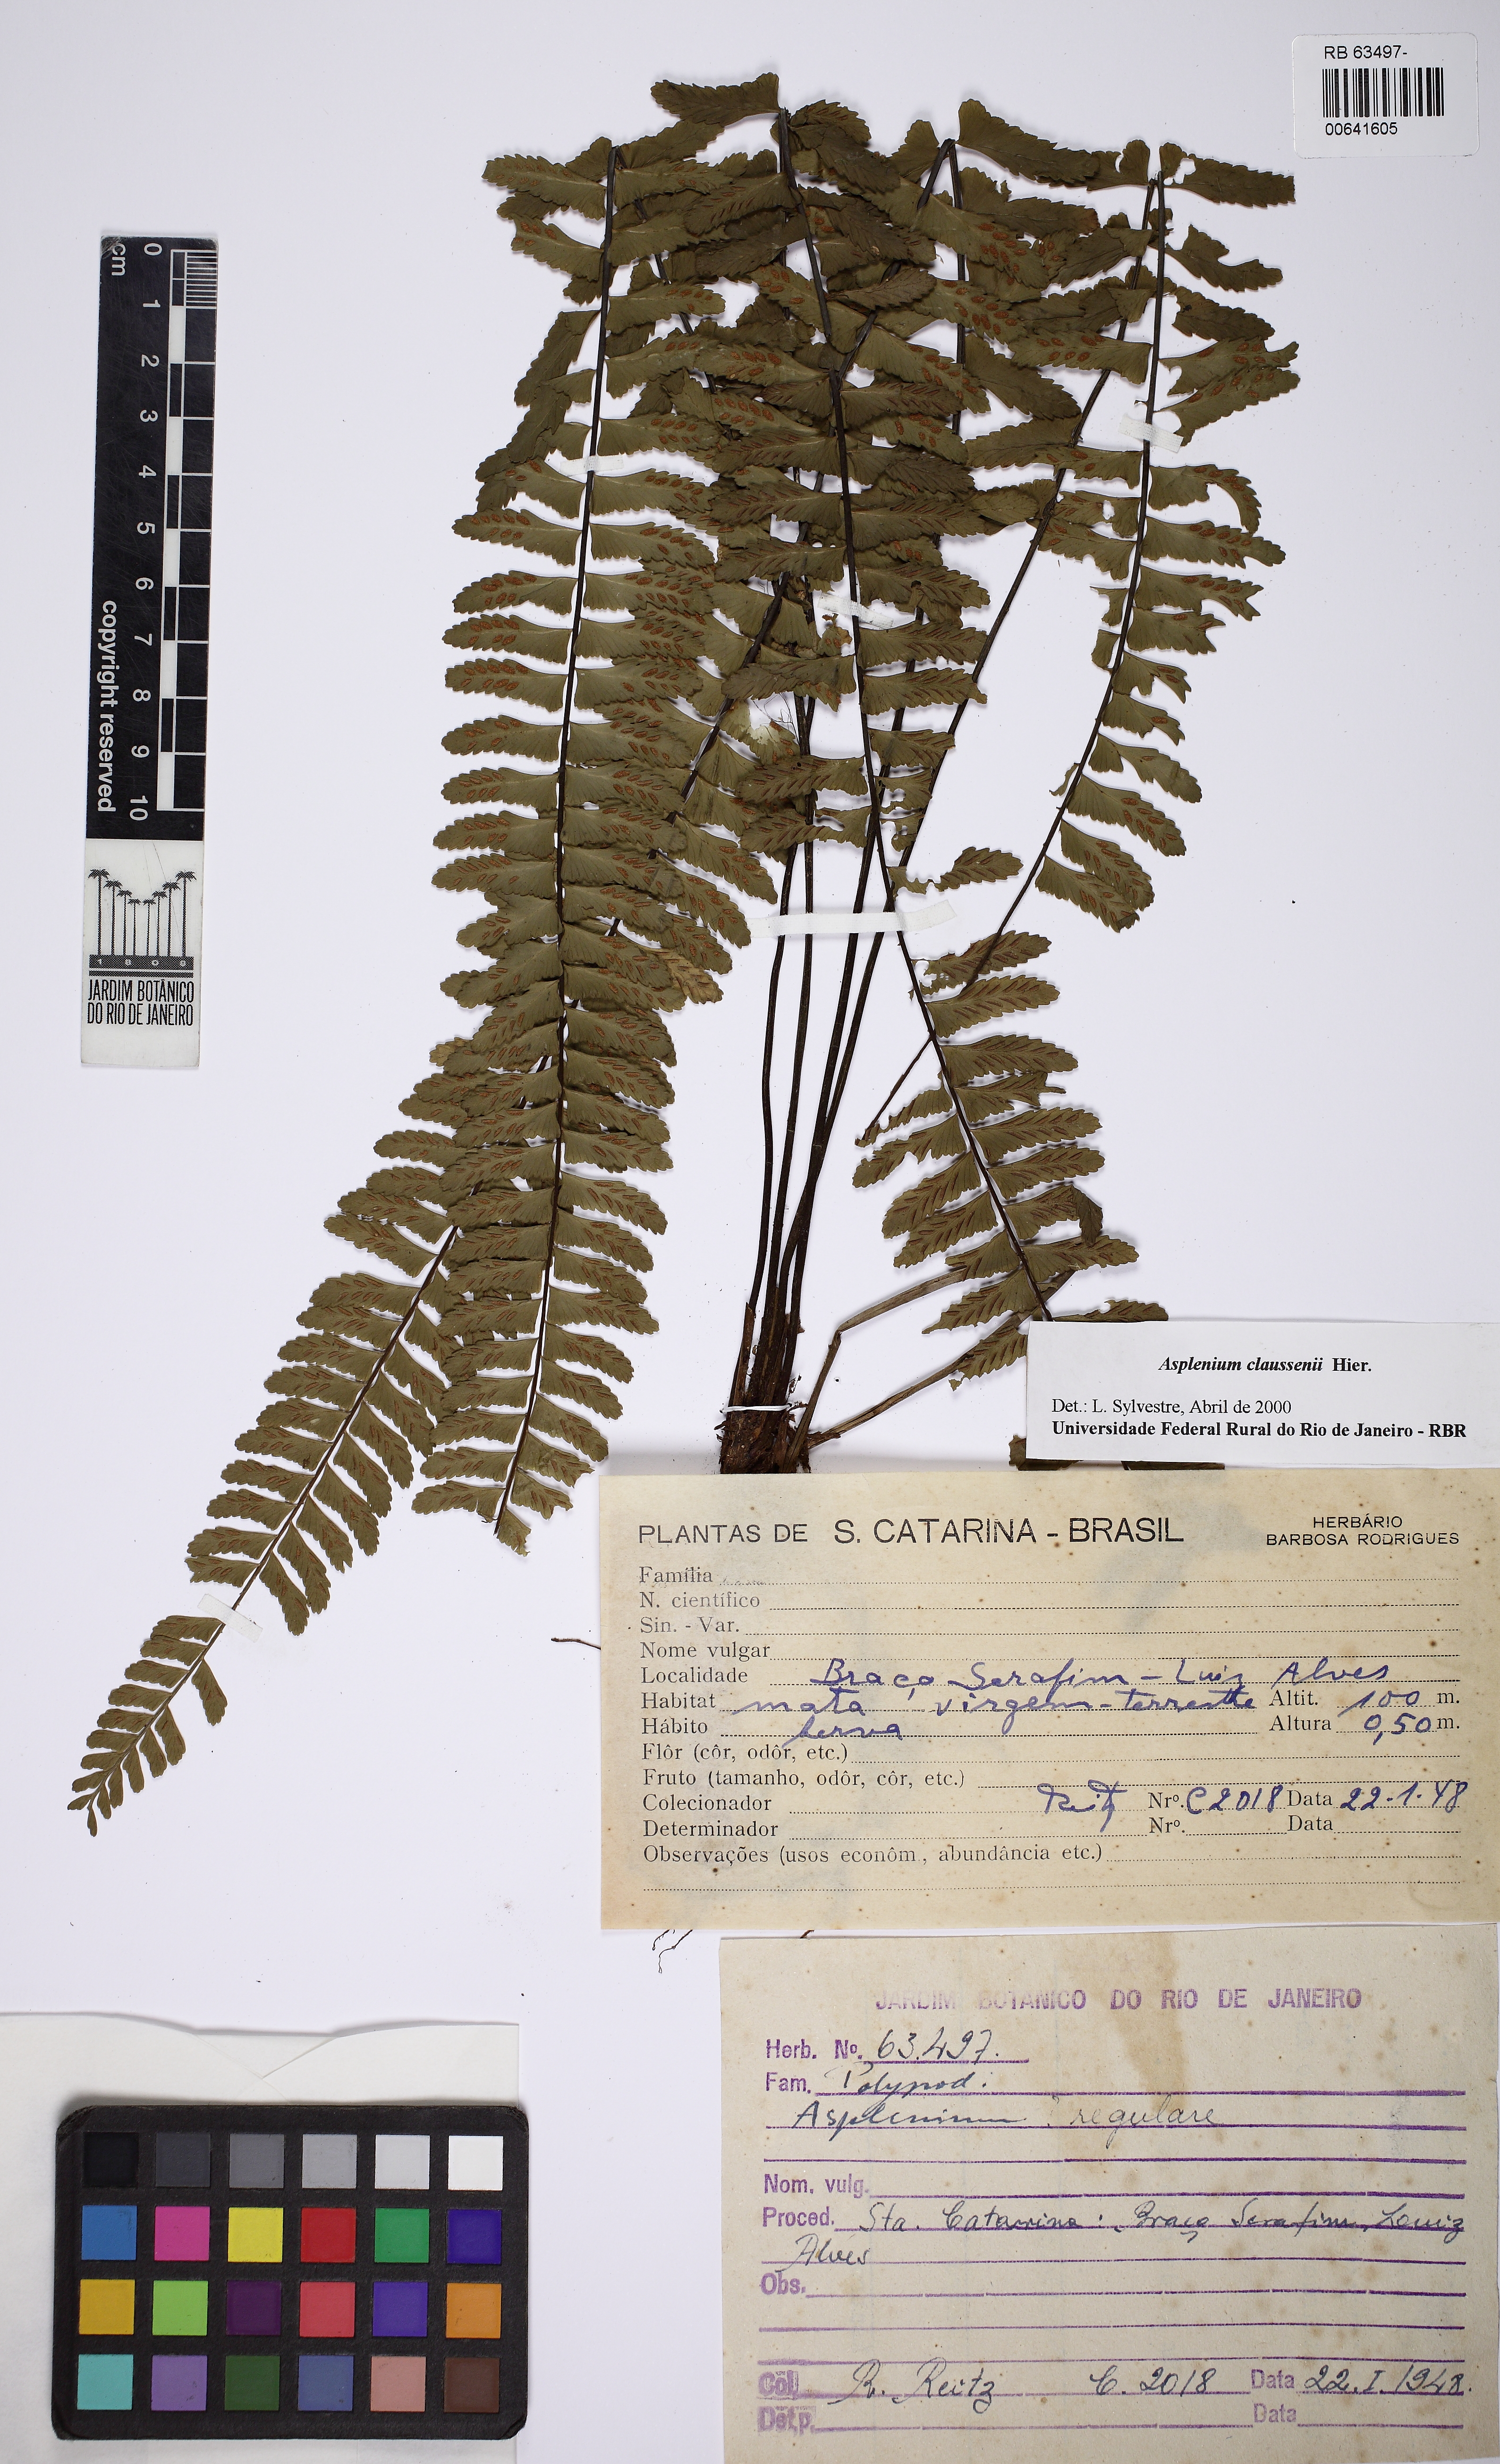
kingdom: Plantae
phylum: Tracheophyta
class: Polypodiopsida
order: Polypodiales
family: Aspleniaceae
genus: Asplenium
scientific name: Asplenium claussenii
